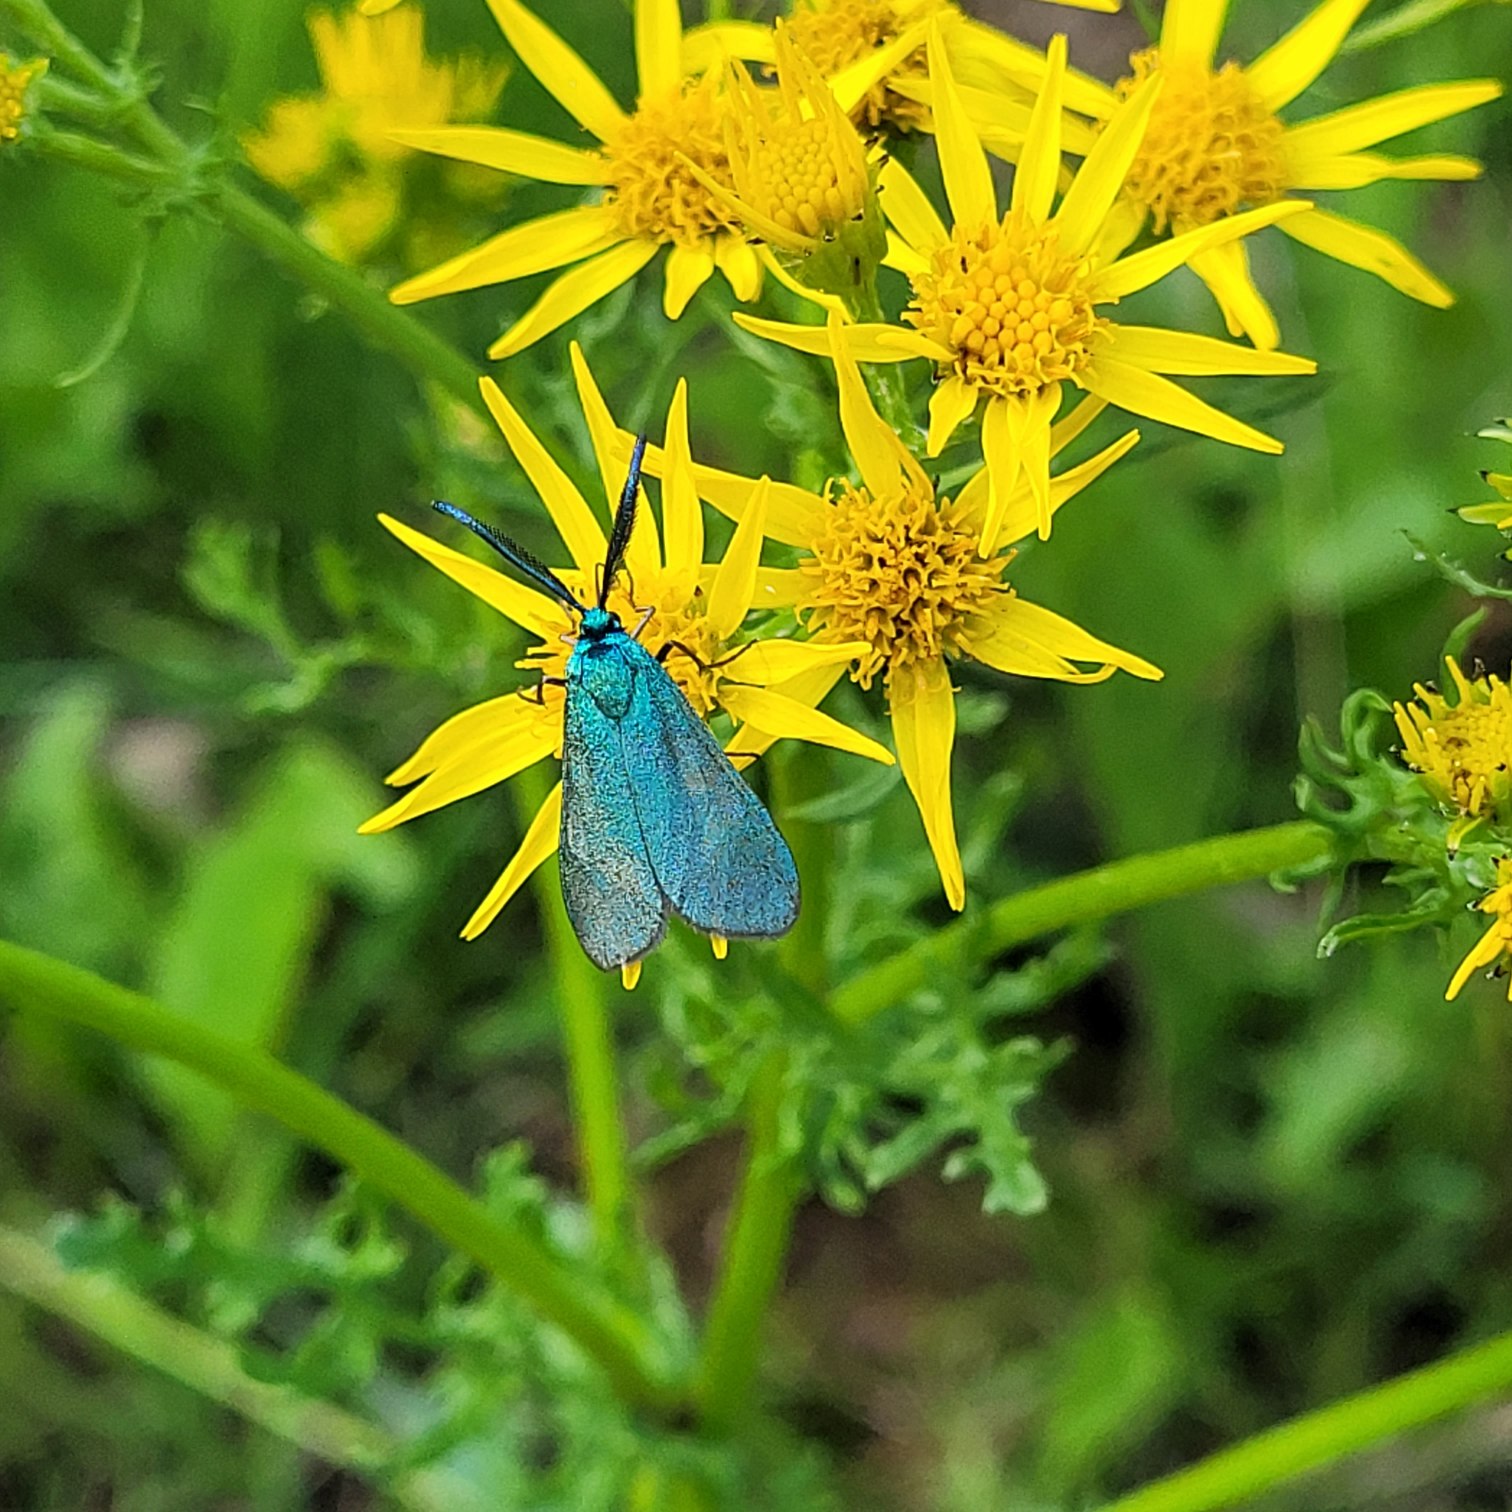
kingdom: Animalia
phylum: Arthropoda
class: Insecta
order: Lepidoptera
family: Zygaenidae
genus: Adscita
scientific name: Adscita statices
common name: Metalvinge
